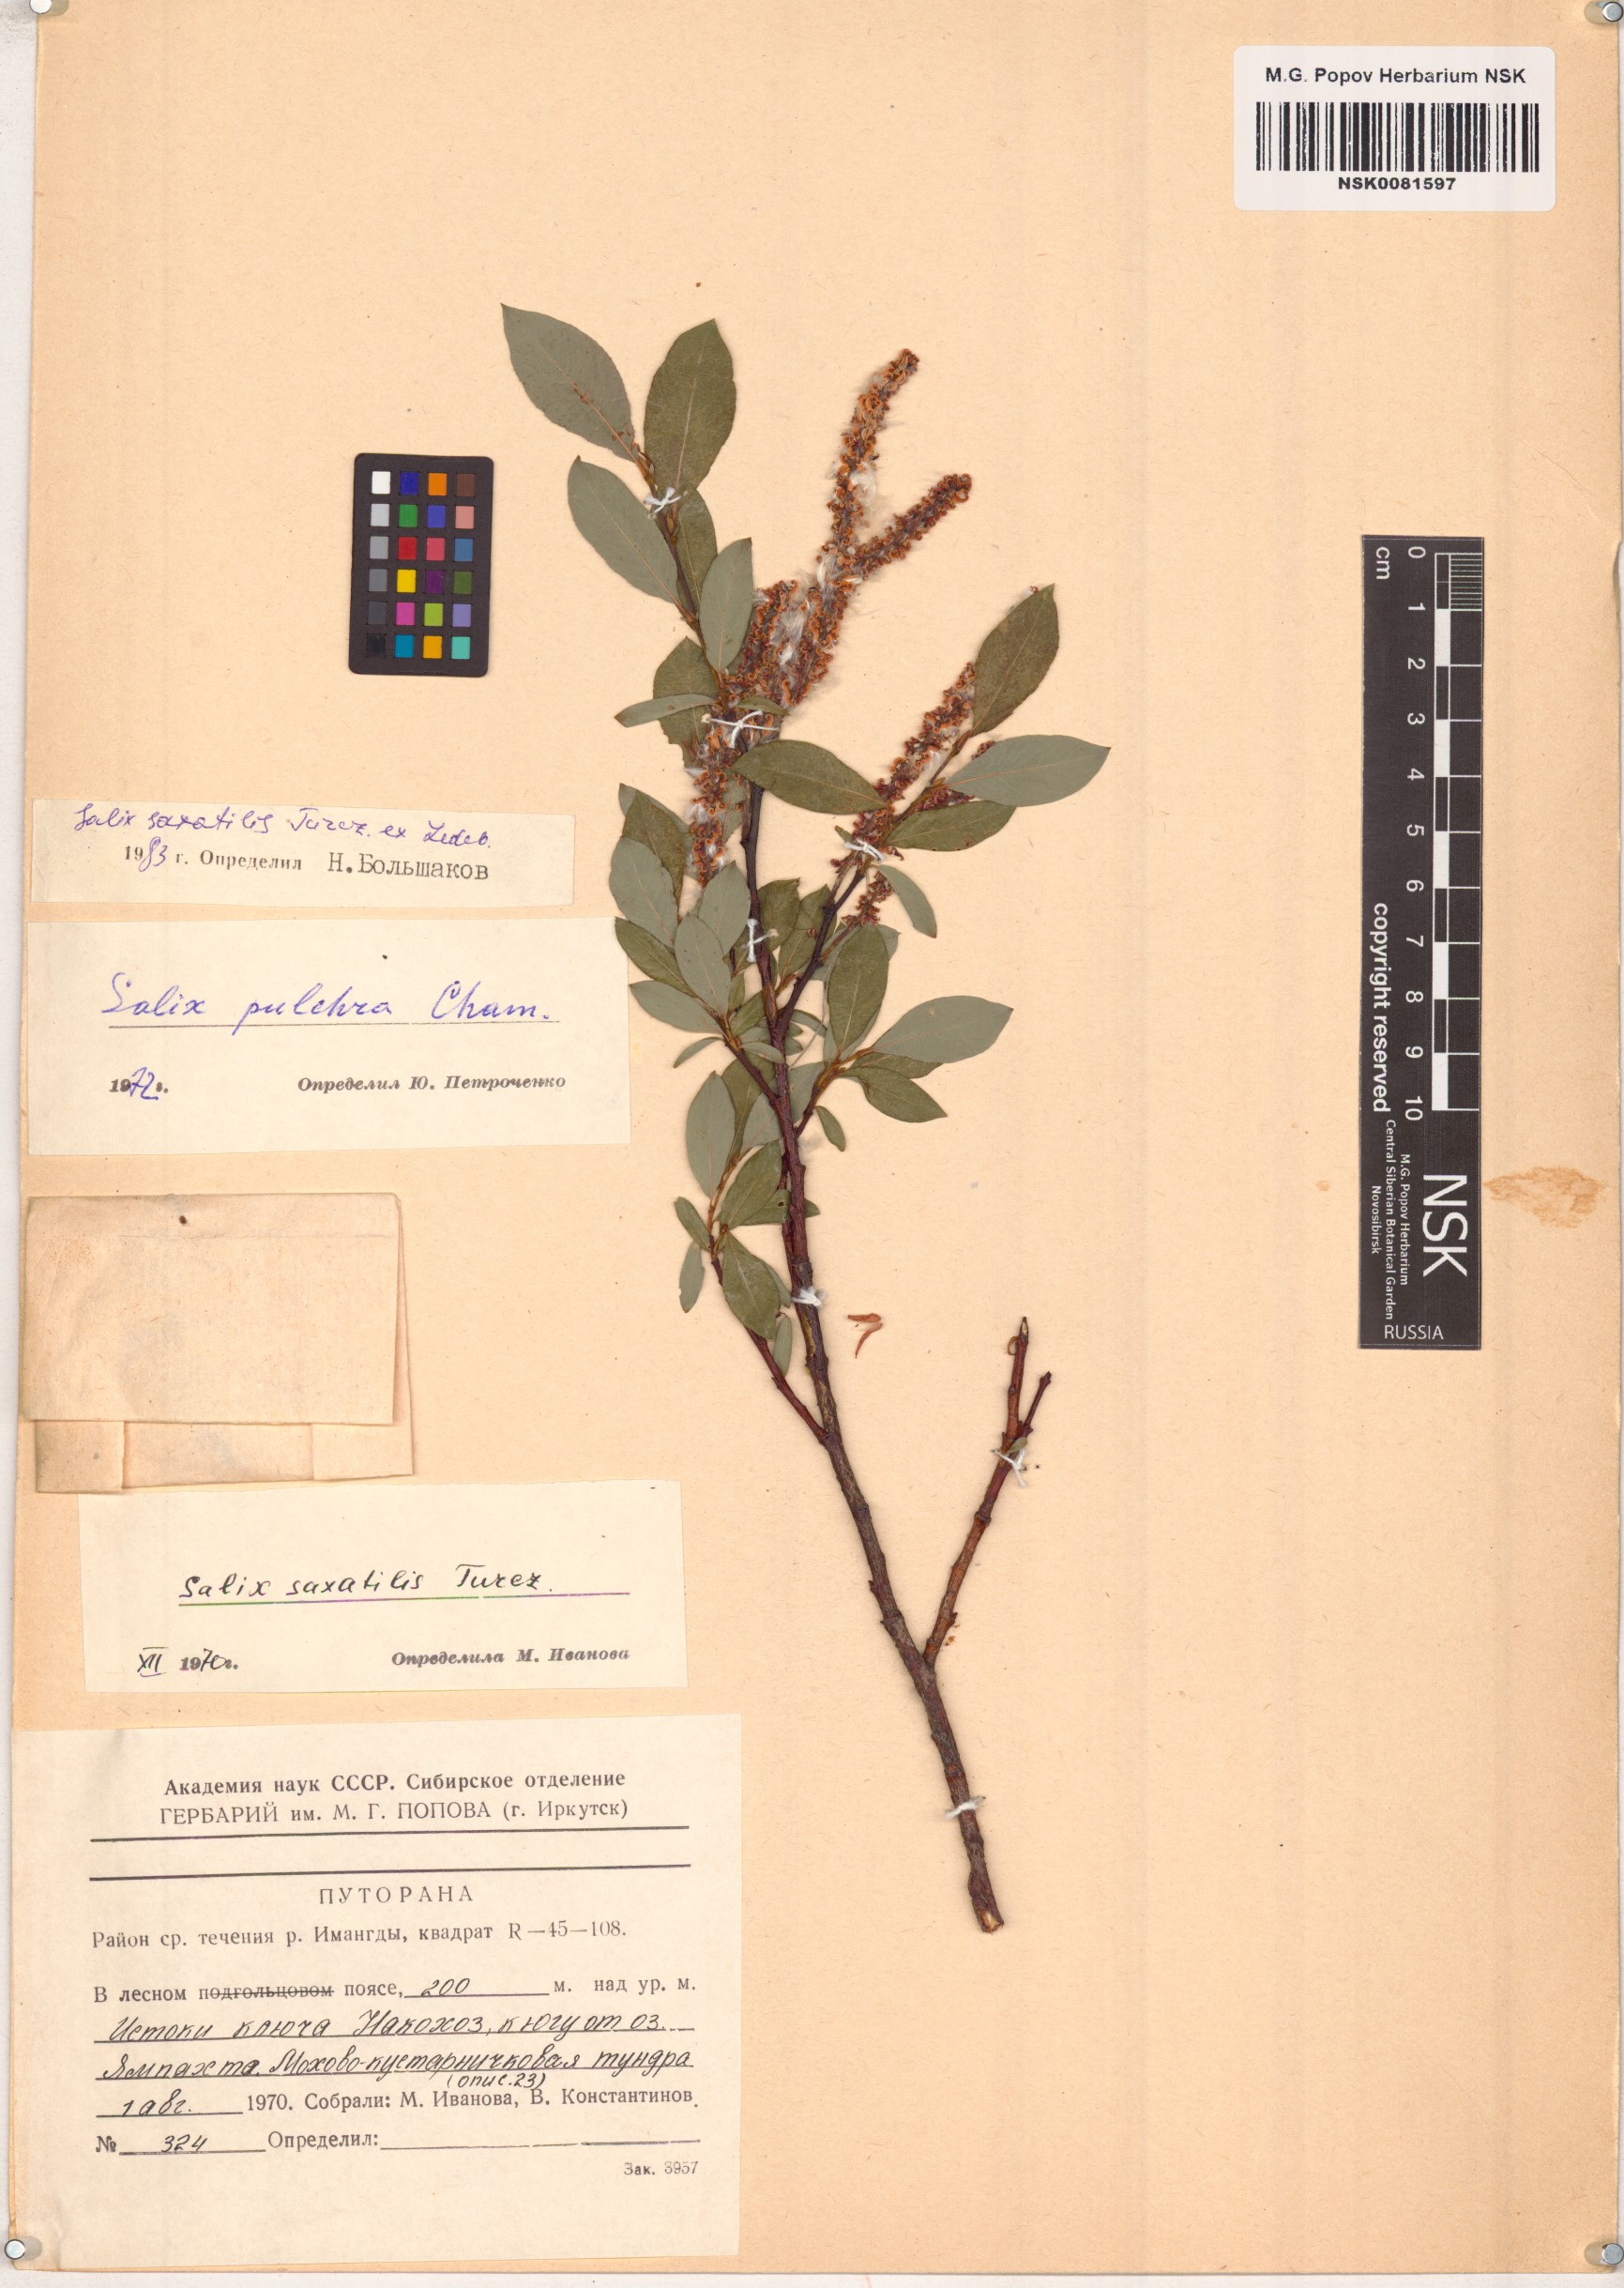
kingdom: Plantae
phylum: Tracheophyta
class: Magnoliopsida
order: Malpighiales
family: Salicaceae
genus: Salix
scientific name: Salix saxatilis
